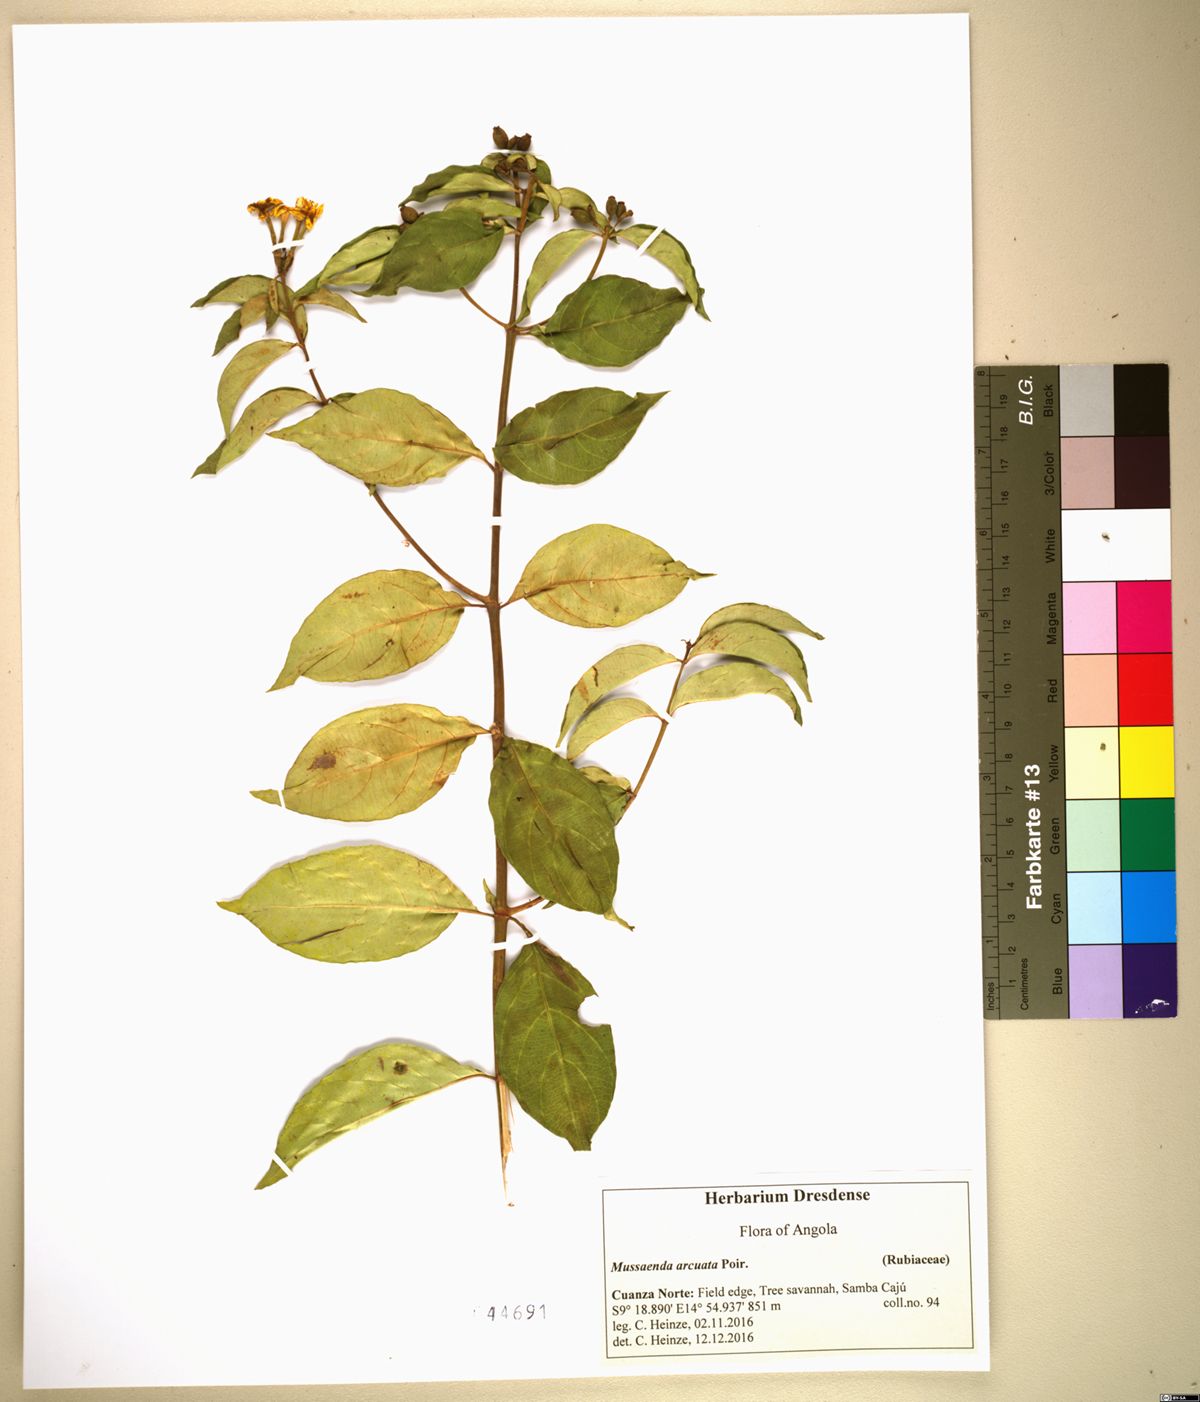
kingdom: Plantae
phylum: Tracheophyta
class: Magnoliopsida
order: Gentianales
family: Rubiaceae
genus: Mussaenda
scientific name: Mussaenda arcuata
